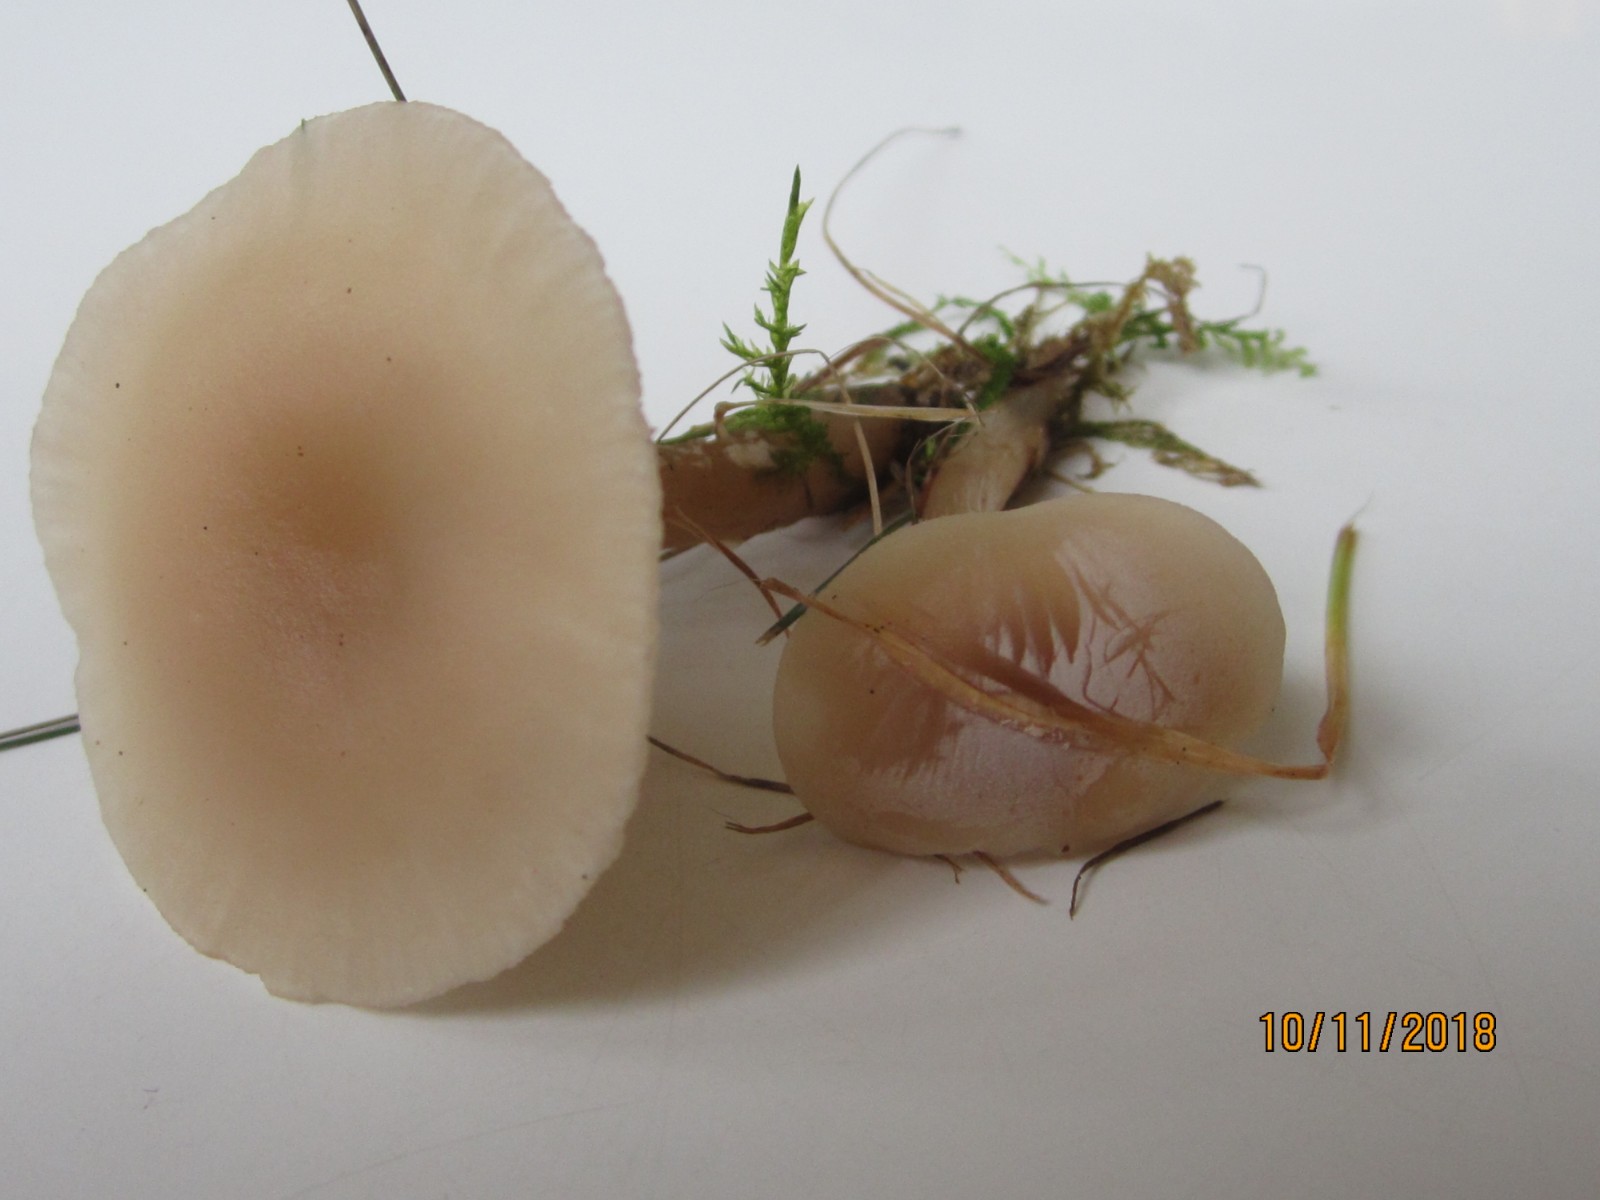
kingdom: Fungi
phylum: Basidiomycota
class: Agaricomycetes
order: Agaricales
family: Tricholomataceae
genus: Clitocybe
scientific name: Clitocybe fragrans
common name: vellugtende tragthat
